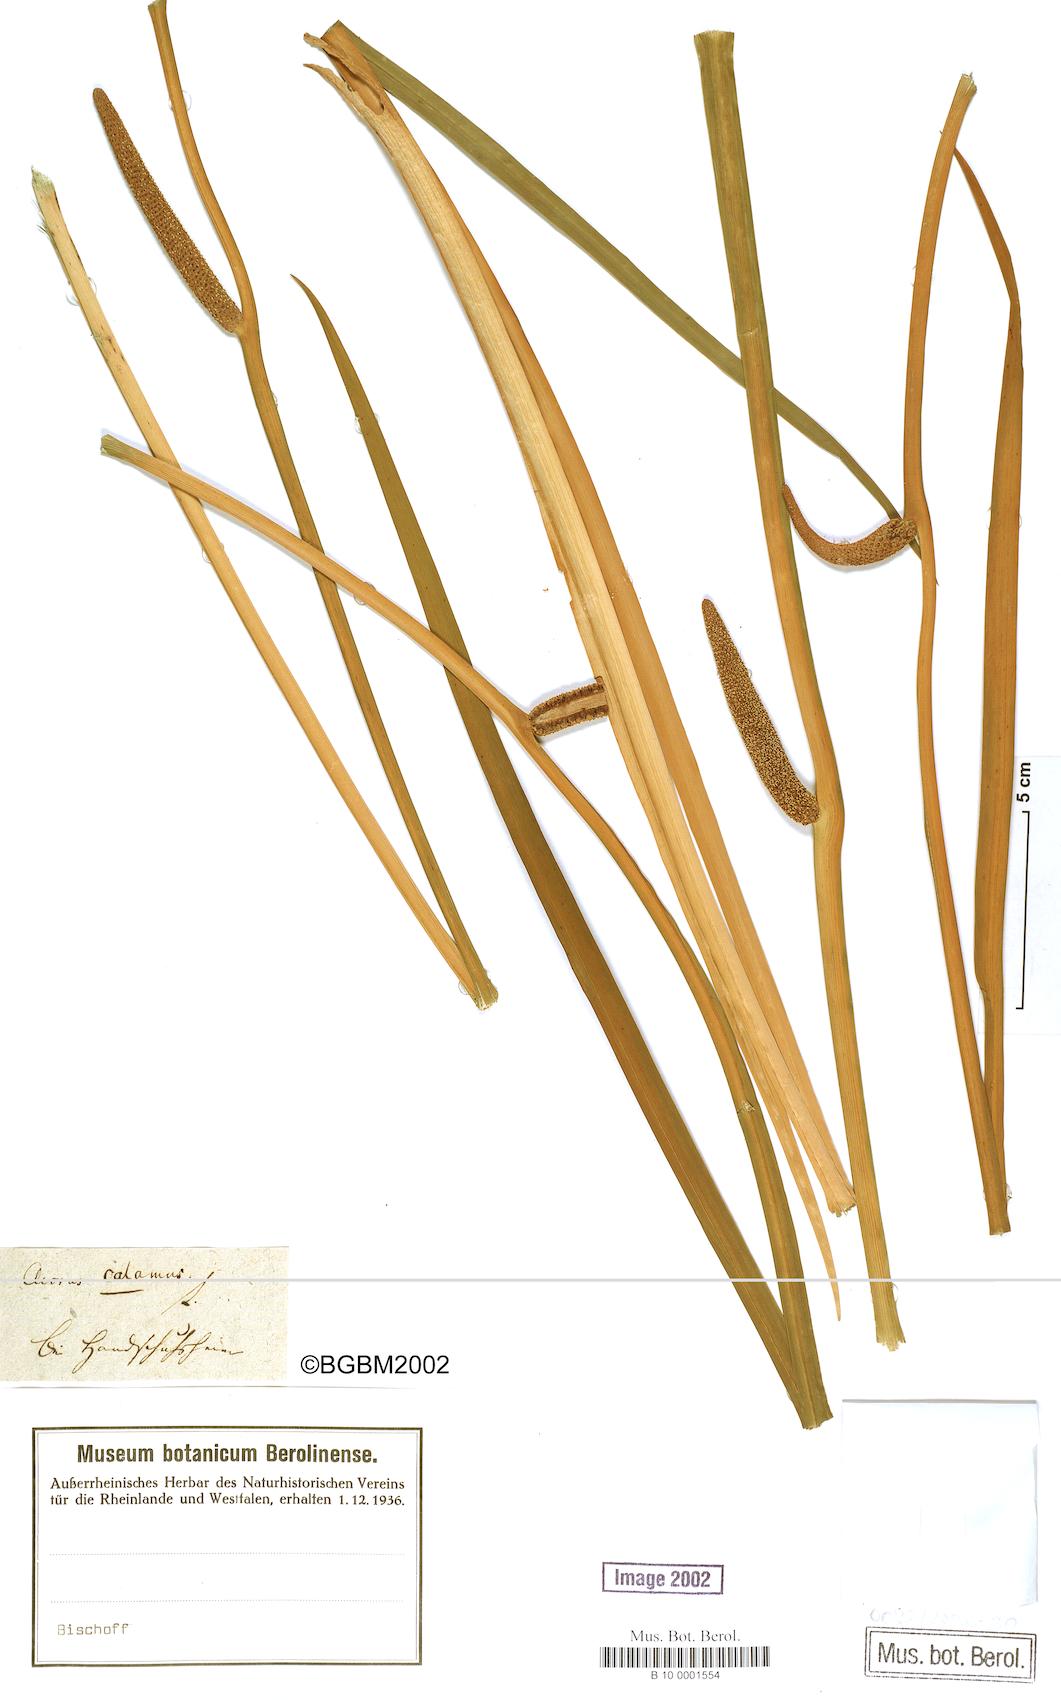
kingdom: Plantae
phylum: Tracheophyta
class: Liliopsida
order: Acorales
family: Acoraceae
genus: Acorus
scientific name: Acorus calamus
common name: Sweet-flag
